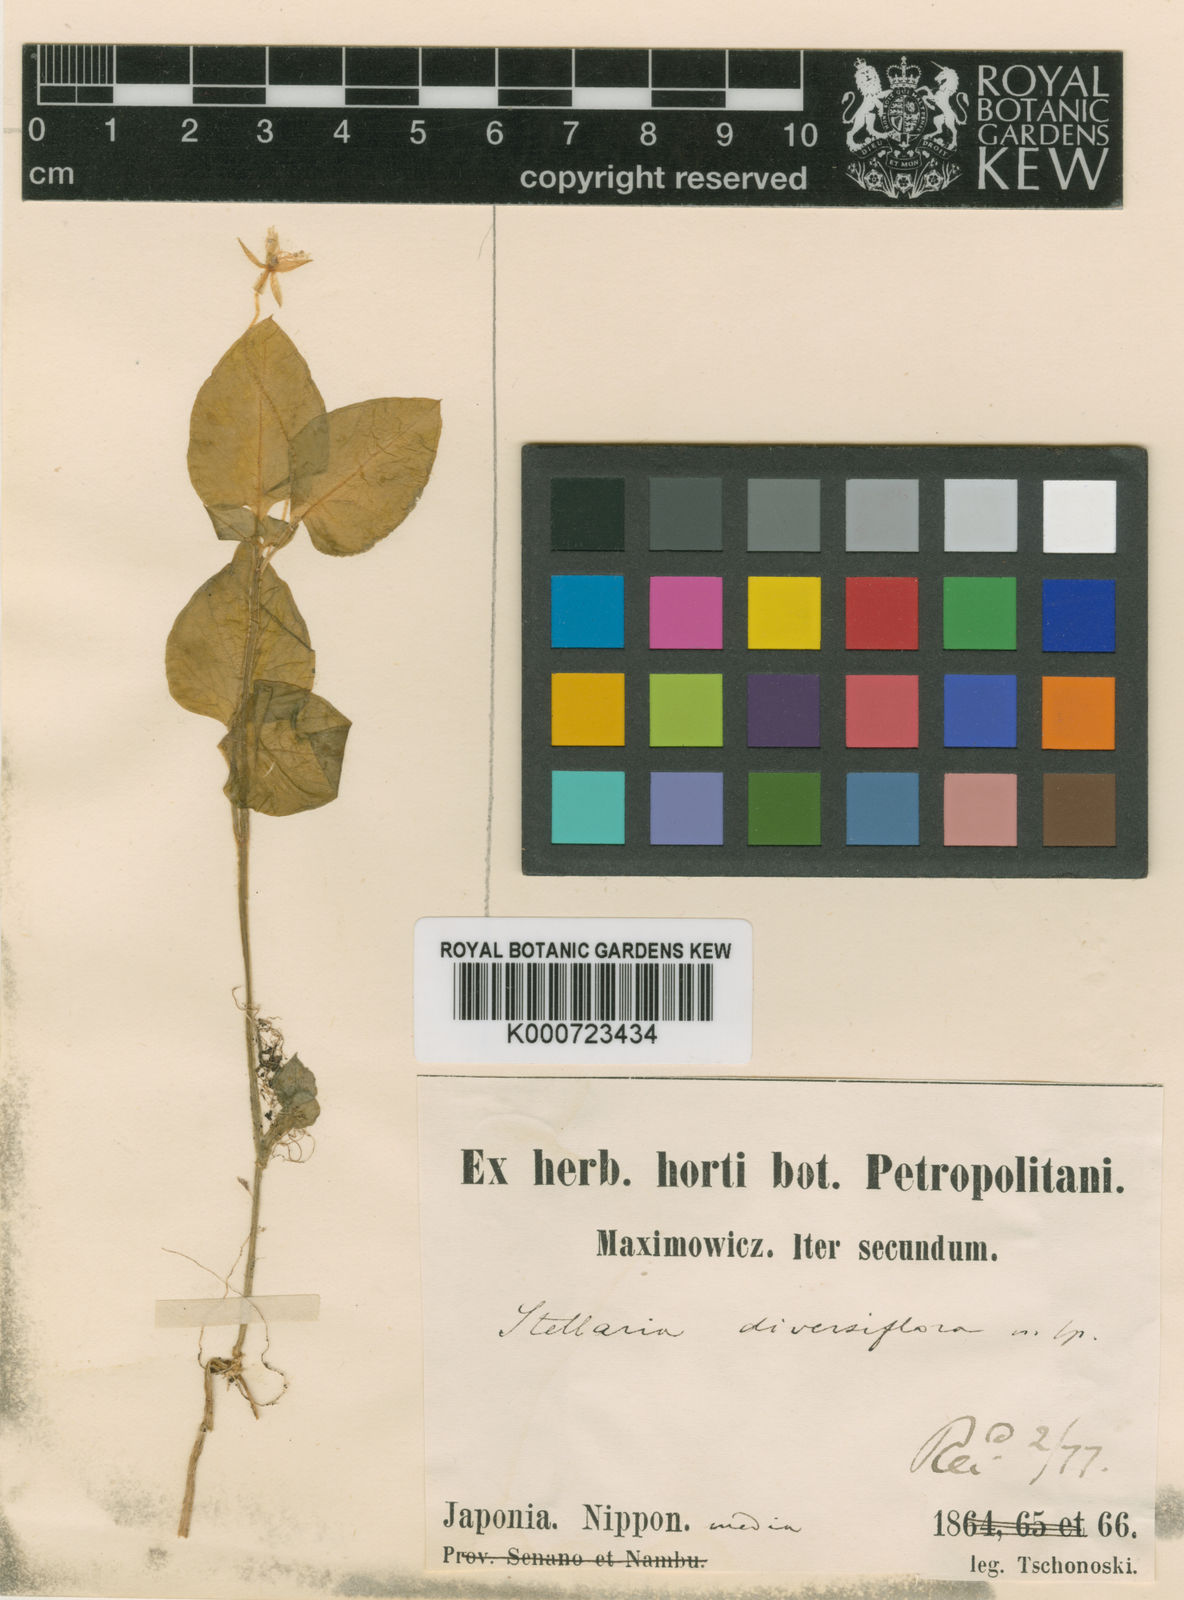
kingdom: Plantae
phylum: Tracheophyta
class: Magnoliopsida
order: Caryophyllales
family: Caryophyllaceae
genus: Nubelaria
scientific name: Nubelaria diversiflora
